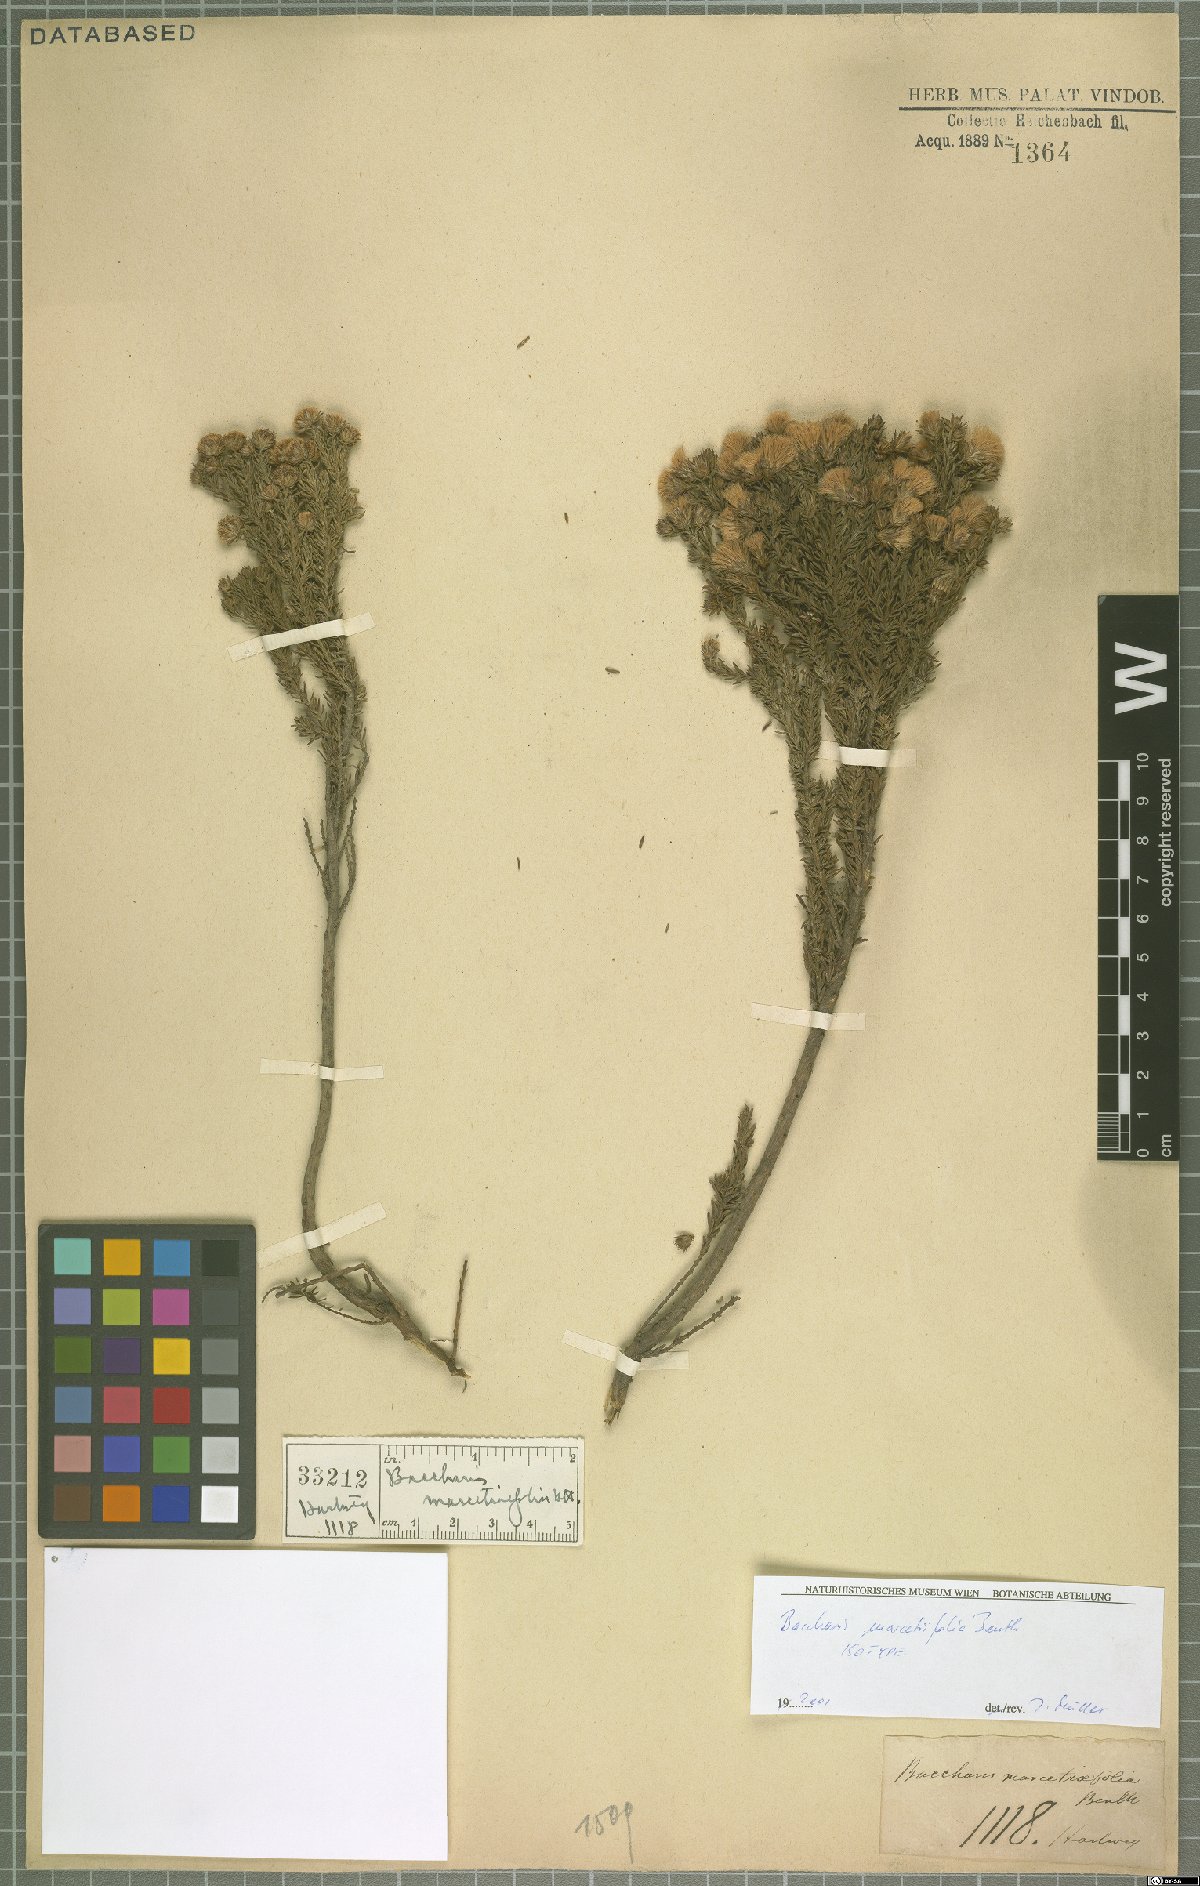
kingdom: Plantae
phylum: Tracheophyta
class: Magnoliopsida
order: Asterales
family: Asteraceae
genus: Baccharis
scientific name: Baccharis marcetiifolia
